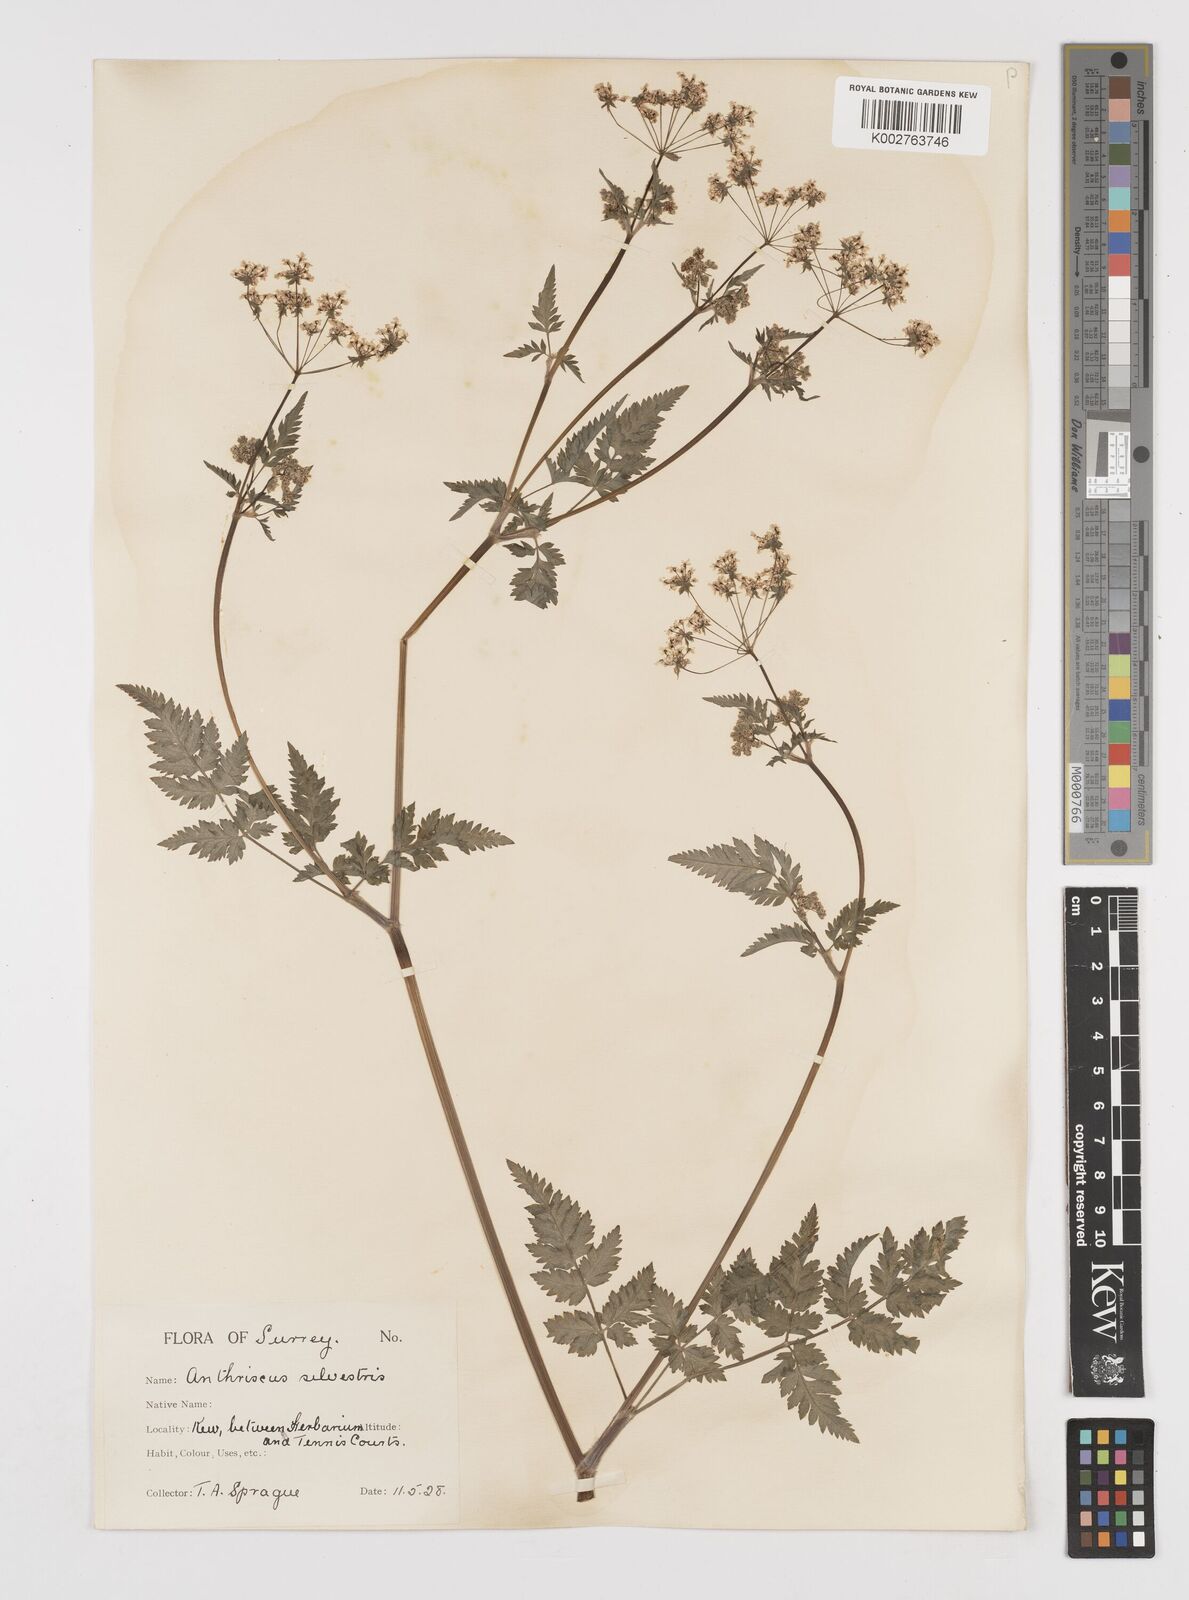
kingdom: Plantae
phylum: Tracheophyta
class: Magnoliopsida
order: Apiales
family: Apiaceae
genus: Anthriscus
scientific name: Anthriscus sylvestris
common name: Cow parsley
